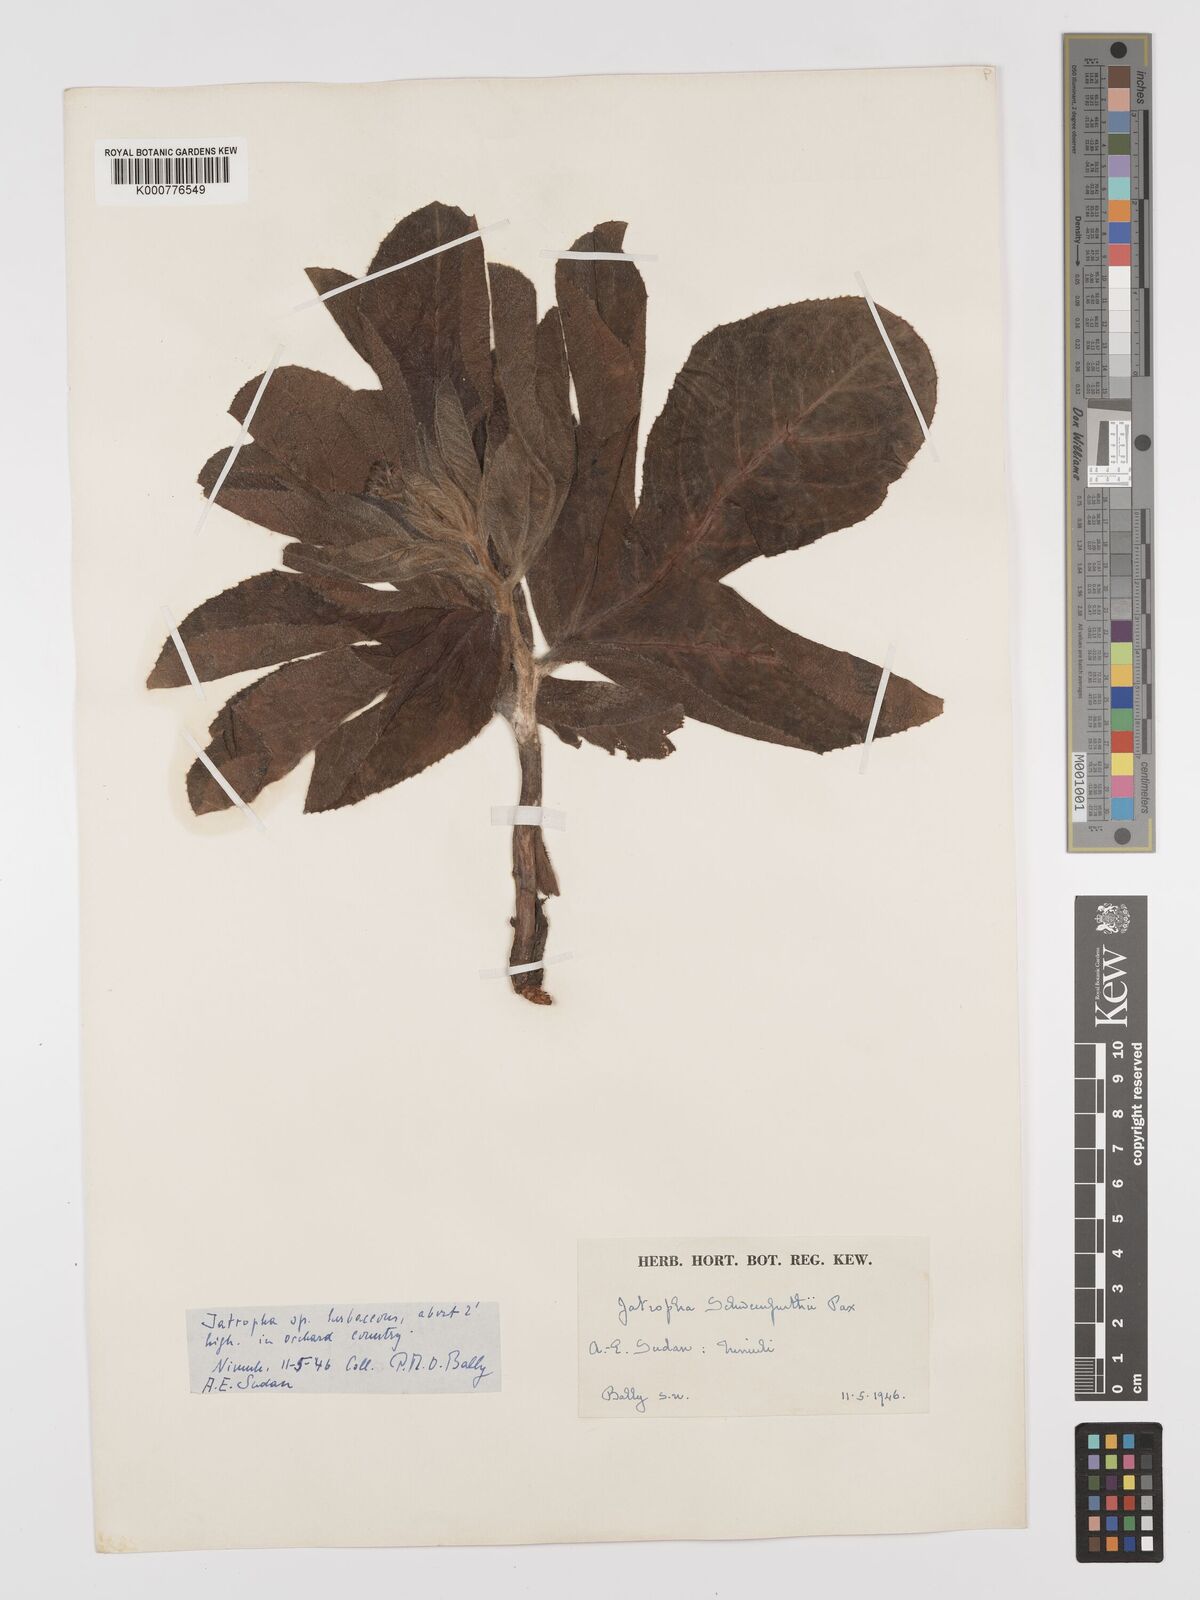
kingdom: Plantae
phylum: Tracheophyta
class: Magnoliopsida
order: Malpighiales
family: Euphorbiaceae
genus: Jatropha
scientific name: Jatropha schweinfurthii
